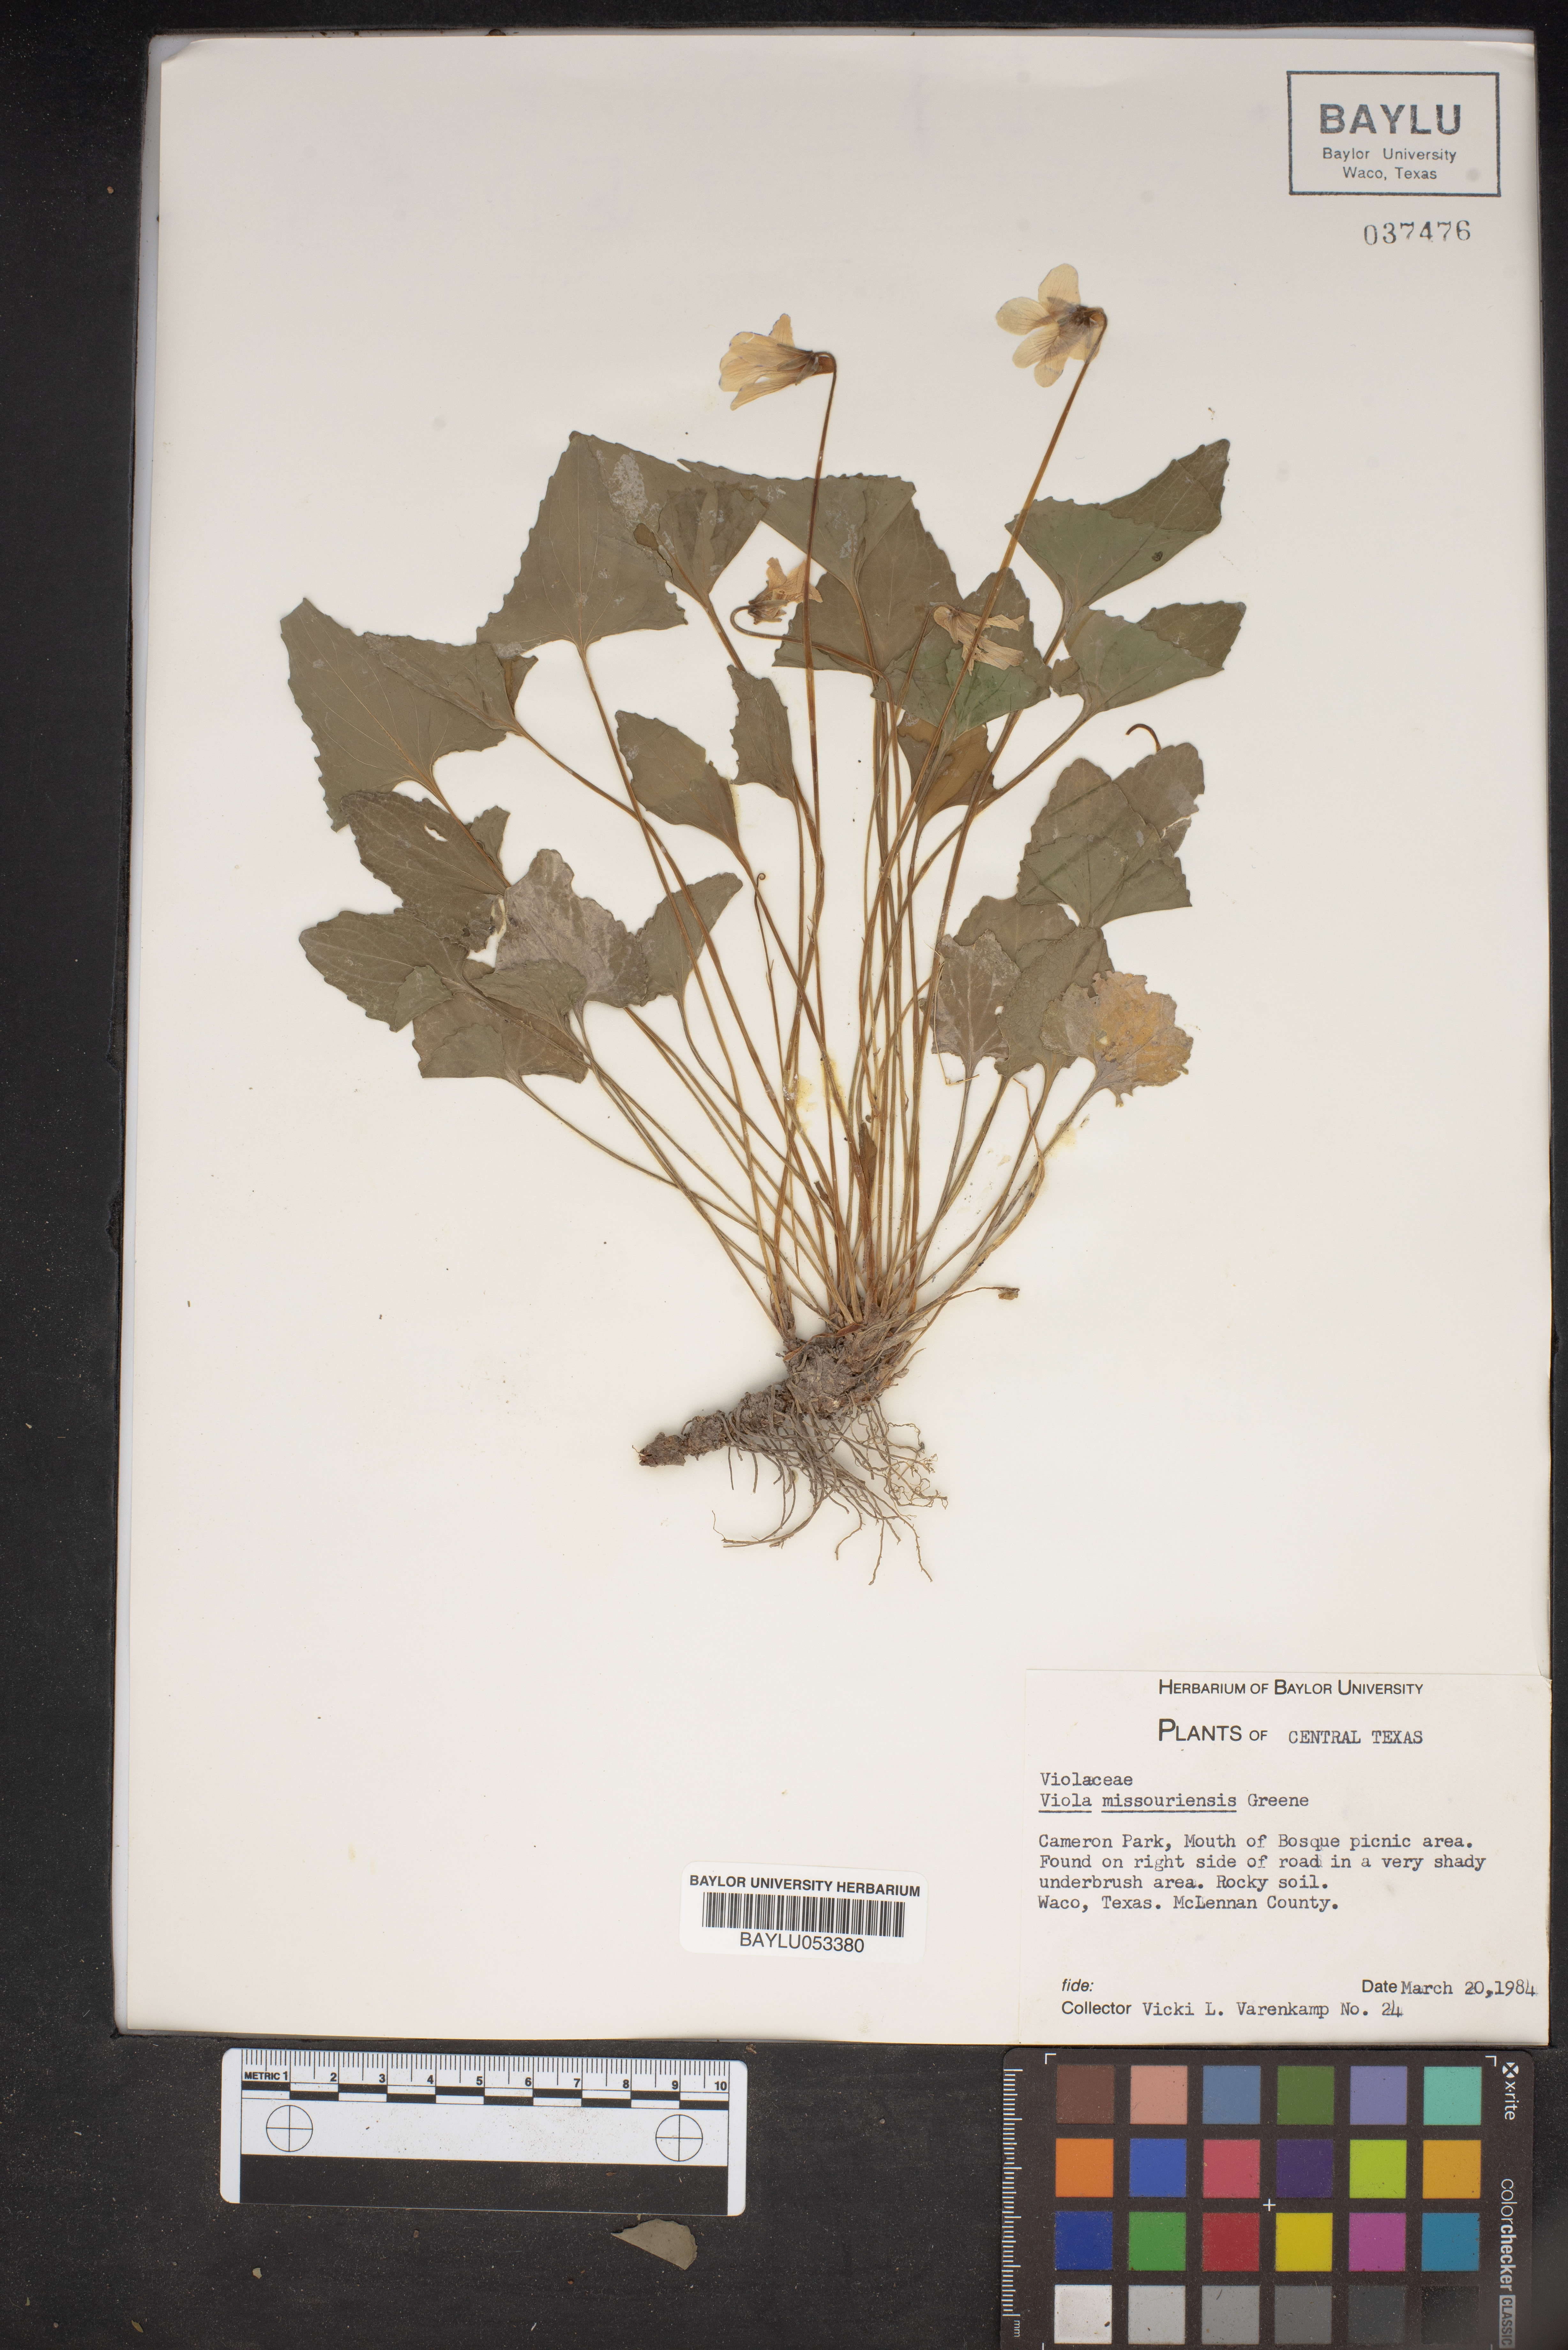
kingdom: Plantae
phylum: Tracheophyta
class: Magnoliopsida
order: Malpighiales
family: Violaceae
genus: Viola
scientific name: Viola missouriensis
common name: Missouri violet
